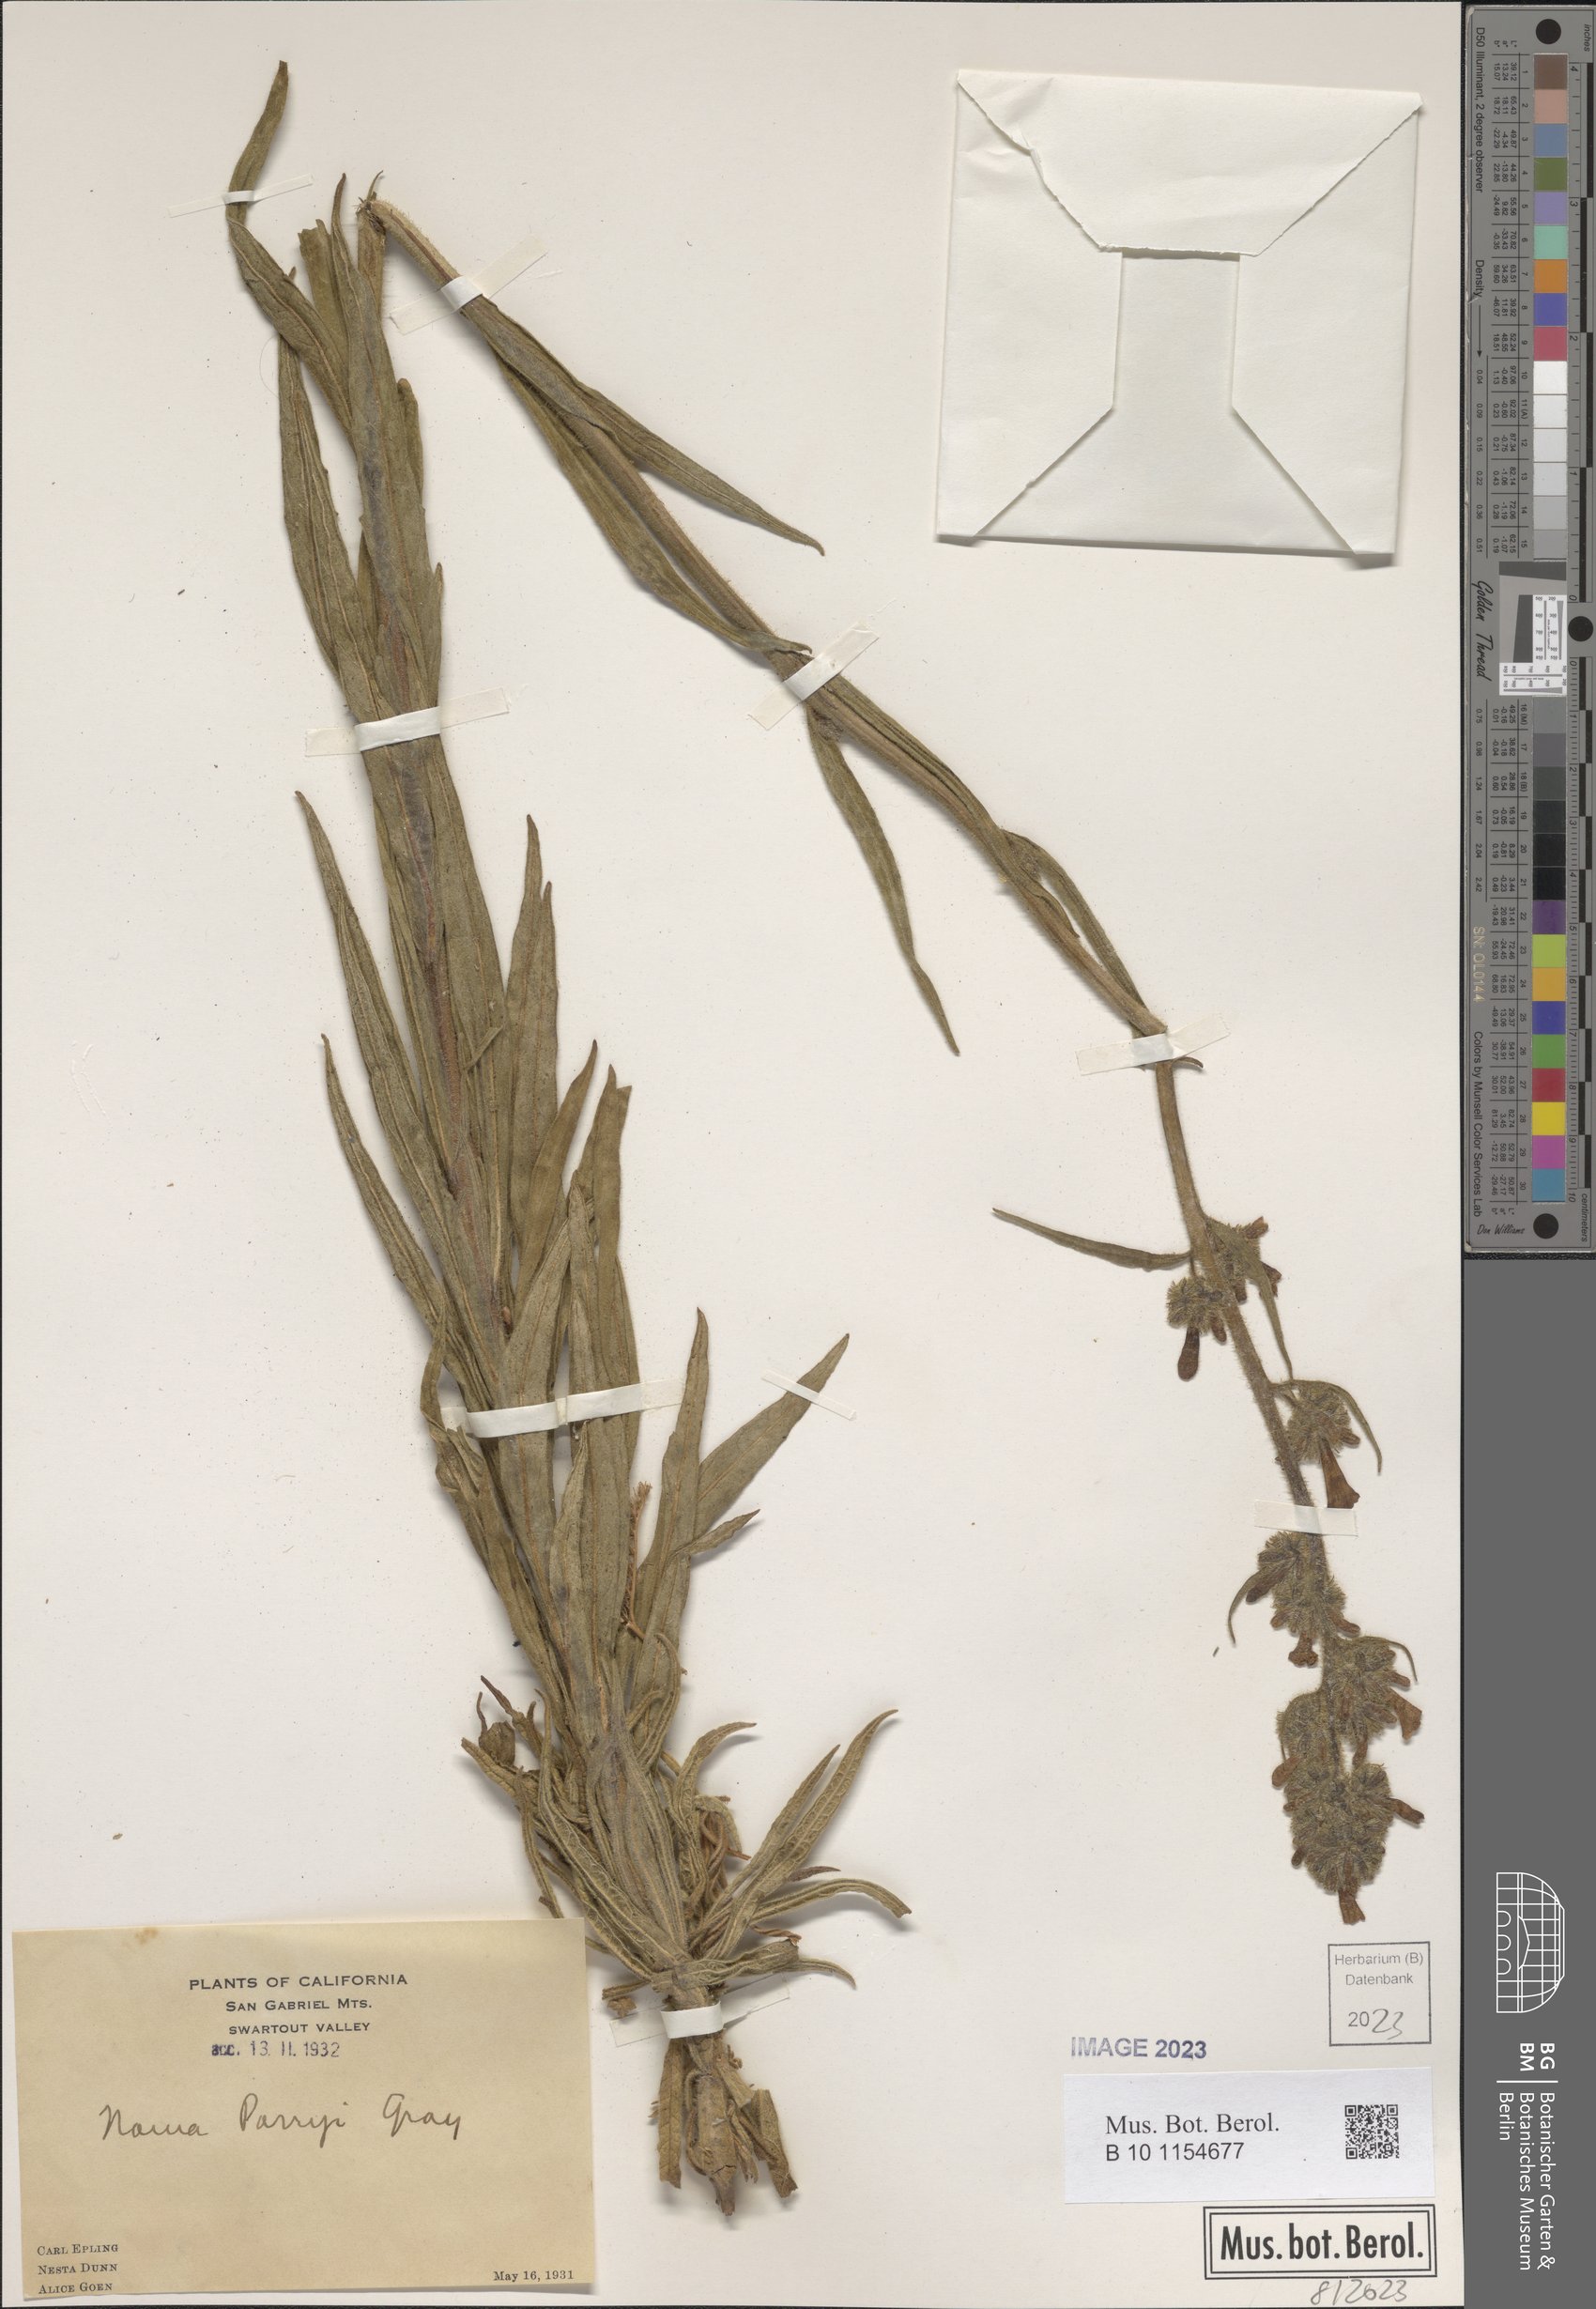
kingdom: Plantae
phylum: Tracheophyta
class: Magnoliopsida
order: Boraginales
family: Namaceae
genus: Turricula
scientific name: Turricula parryi
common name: Poodle-dog-bush
